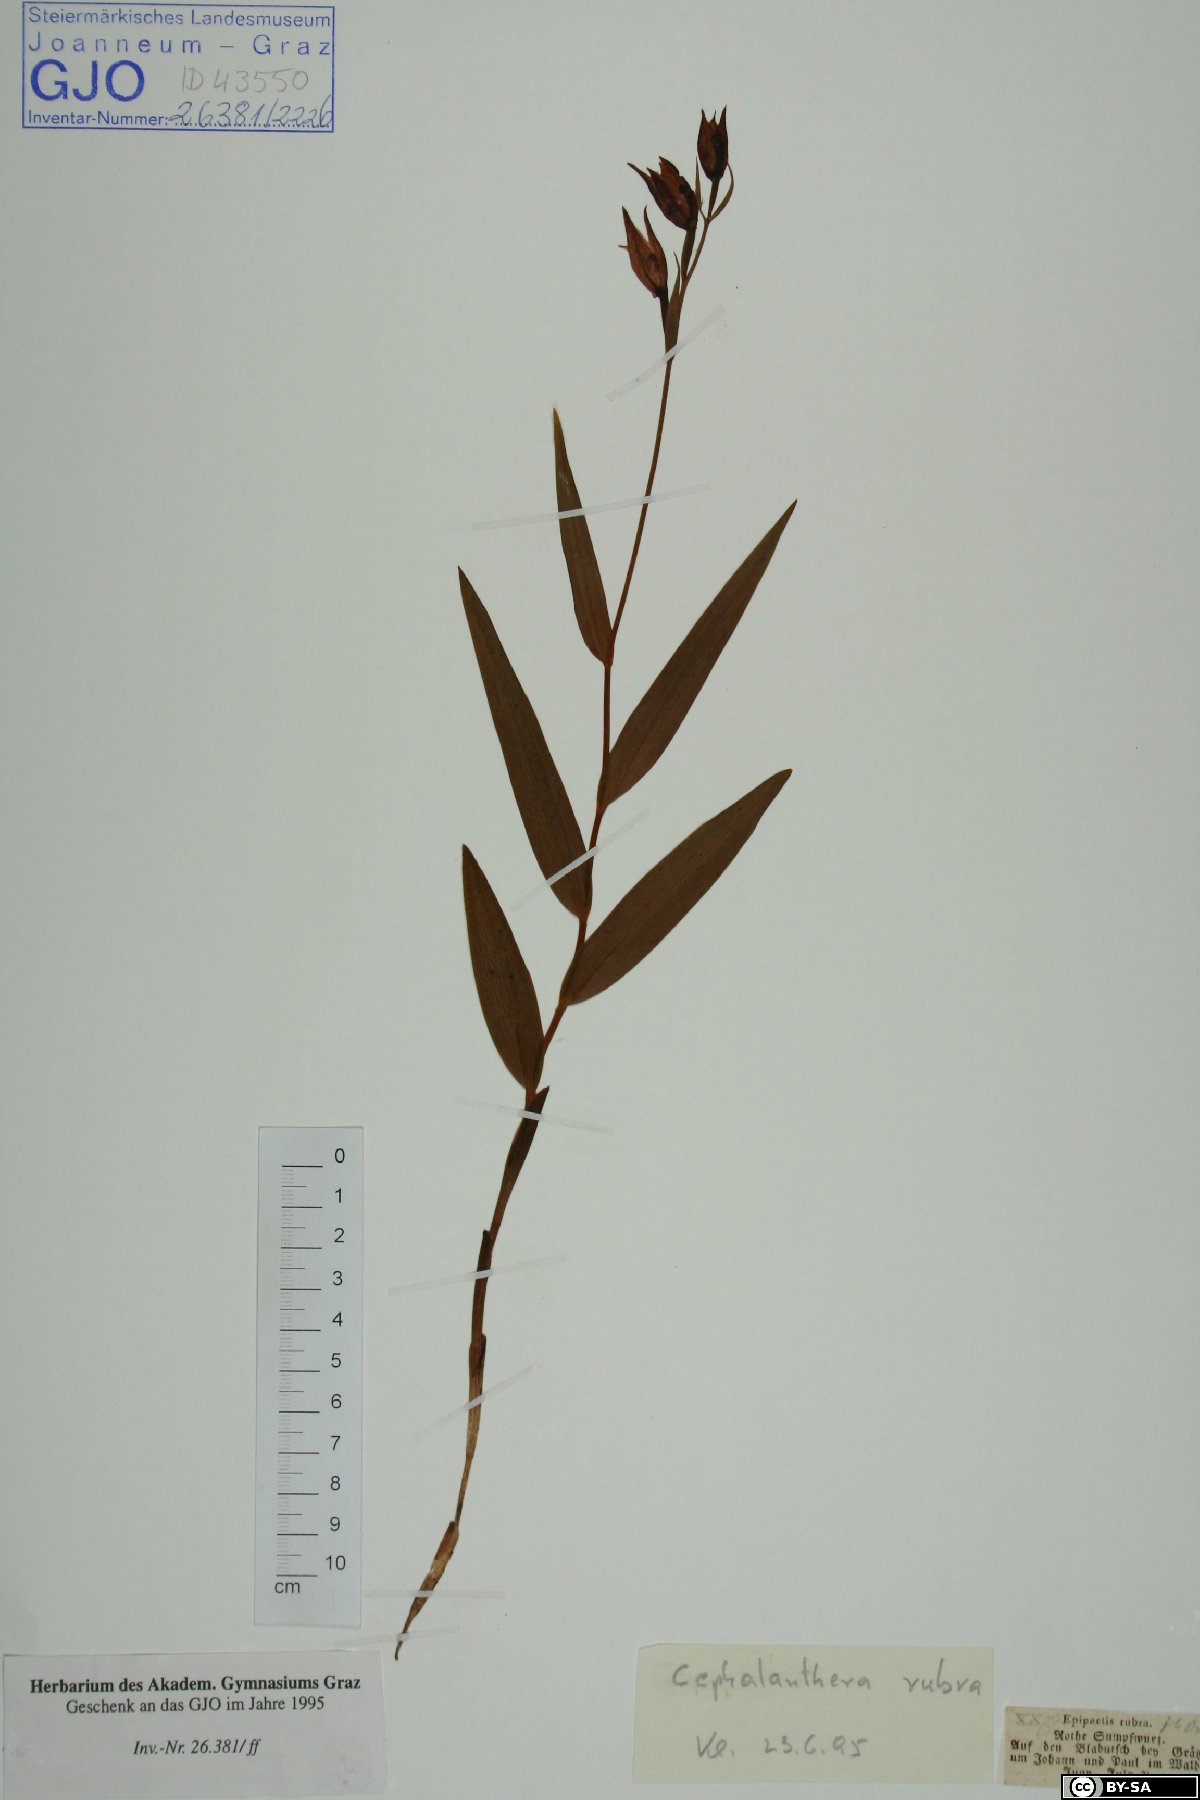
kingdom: Plantae
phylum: Tracheophyta
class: Liliopsida
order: Asparagales
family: Orchidaceae
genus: Cephalanthera
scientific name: Cephalanthera rubra
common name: Red helleborine
